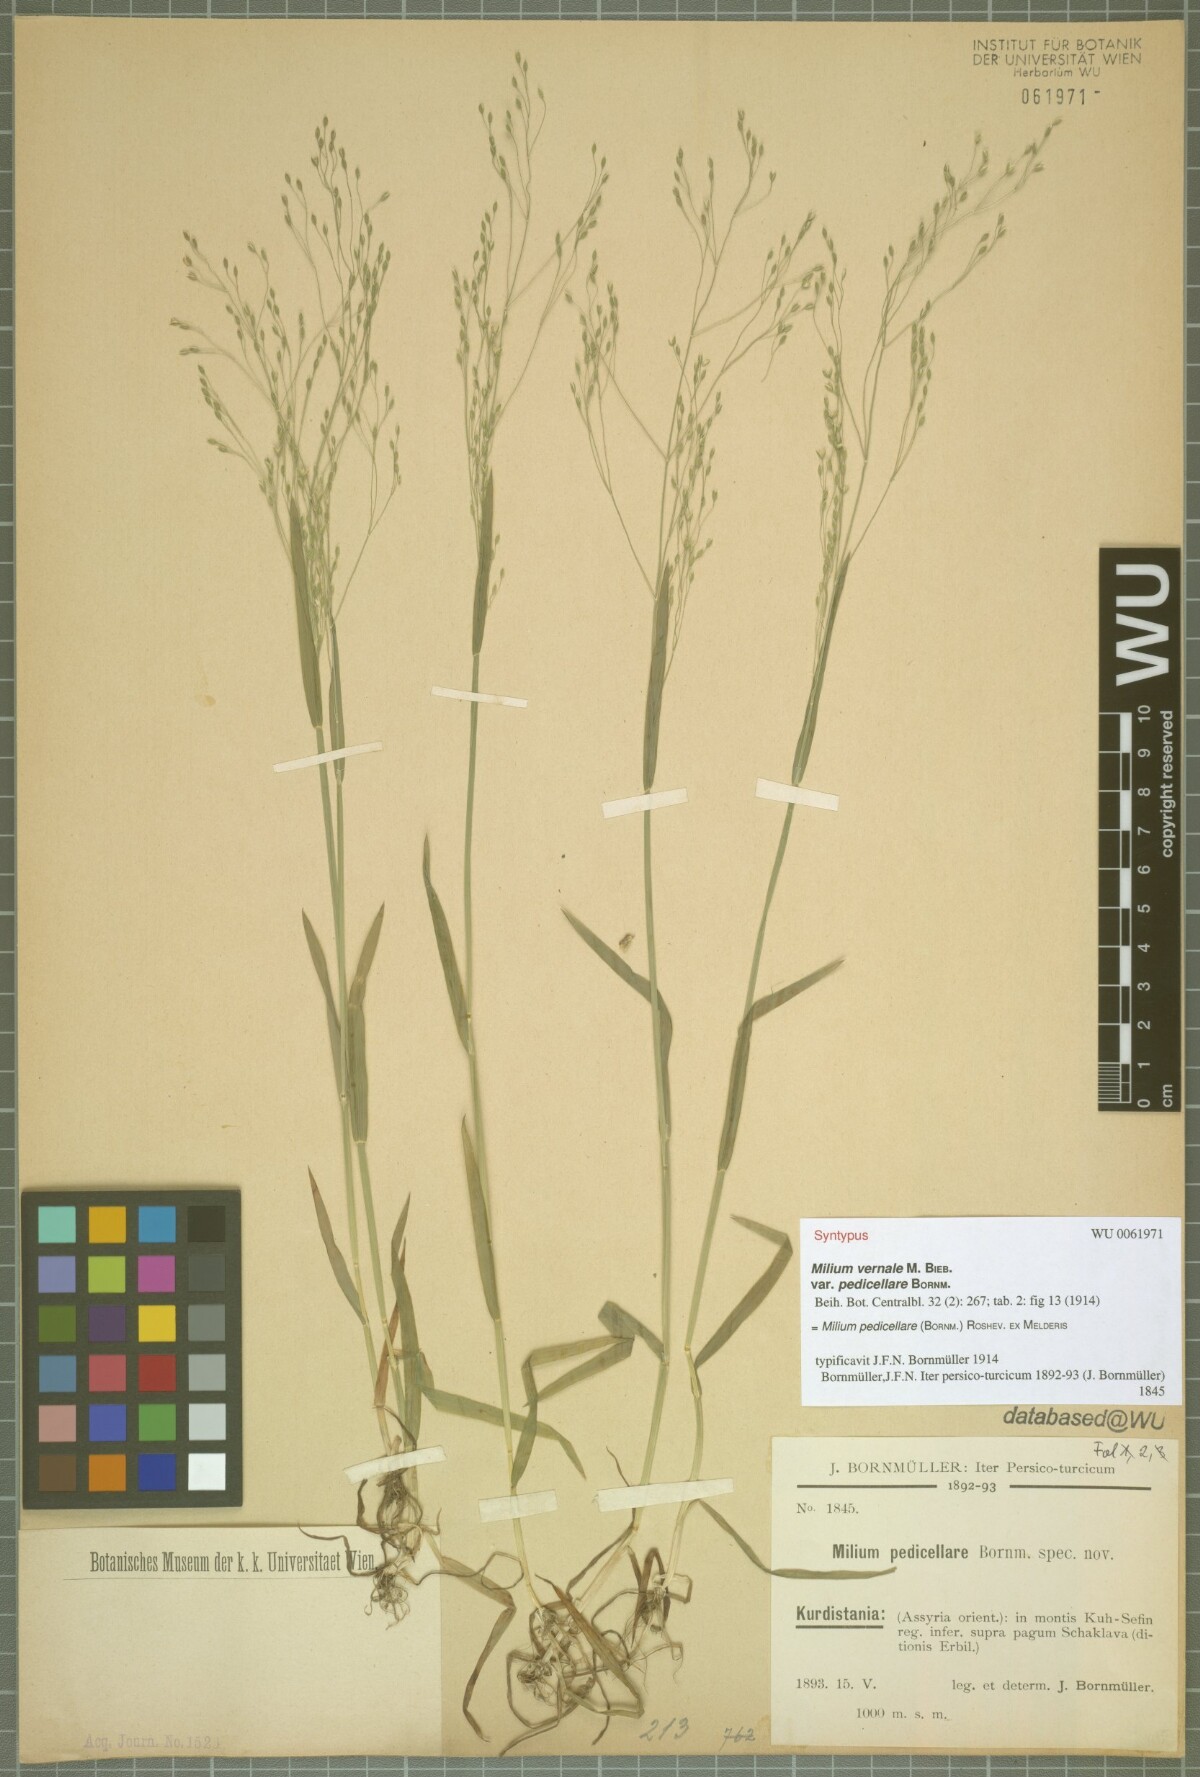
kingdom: Plantae
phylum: Tracheophyta
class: Liliopsida
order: Poales
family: Poaceae
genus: Milium
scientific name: Milium pedicellare
